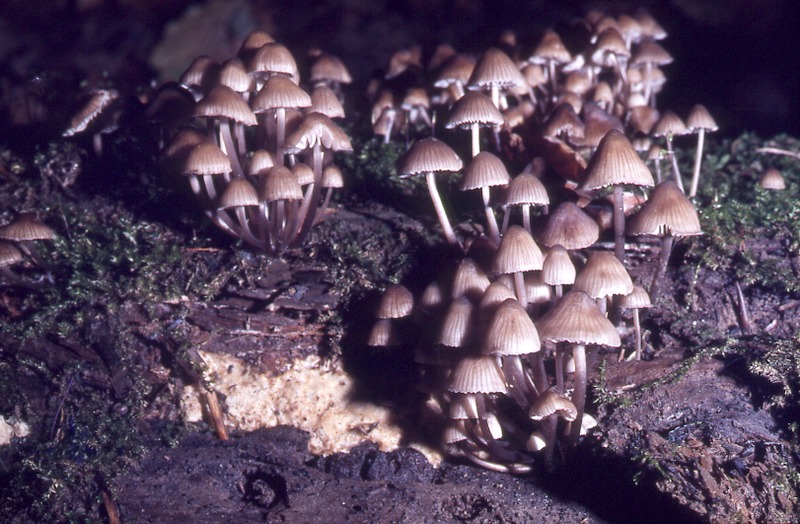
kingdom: Fungi
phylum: Basidiomycota
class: Agaricomycetes
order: Agaricales
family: Mycenaceae
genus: Mycena
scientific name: Mycena alcalina
